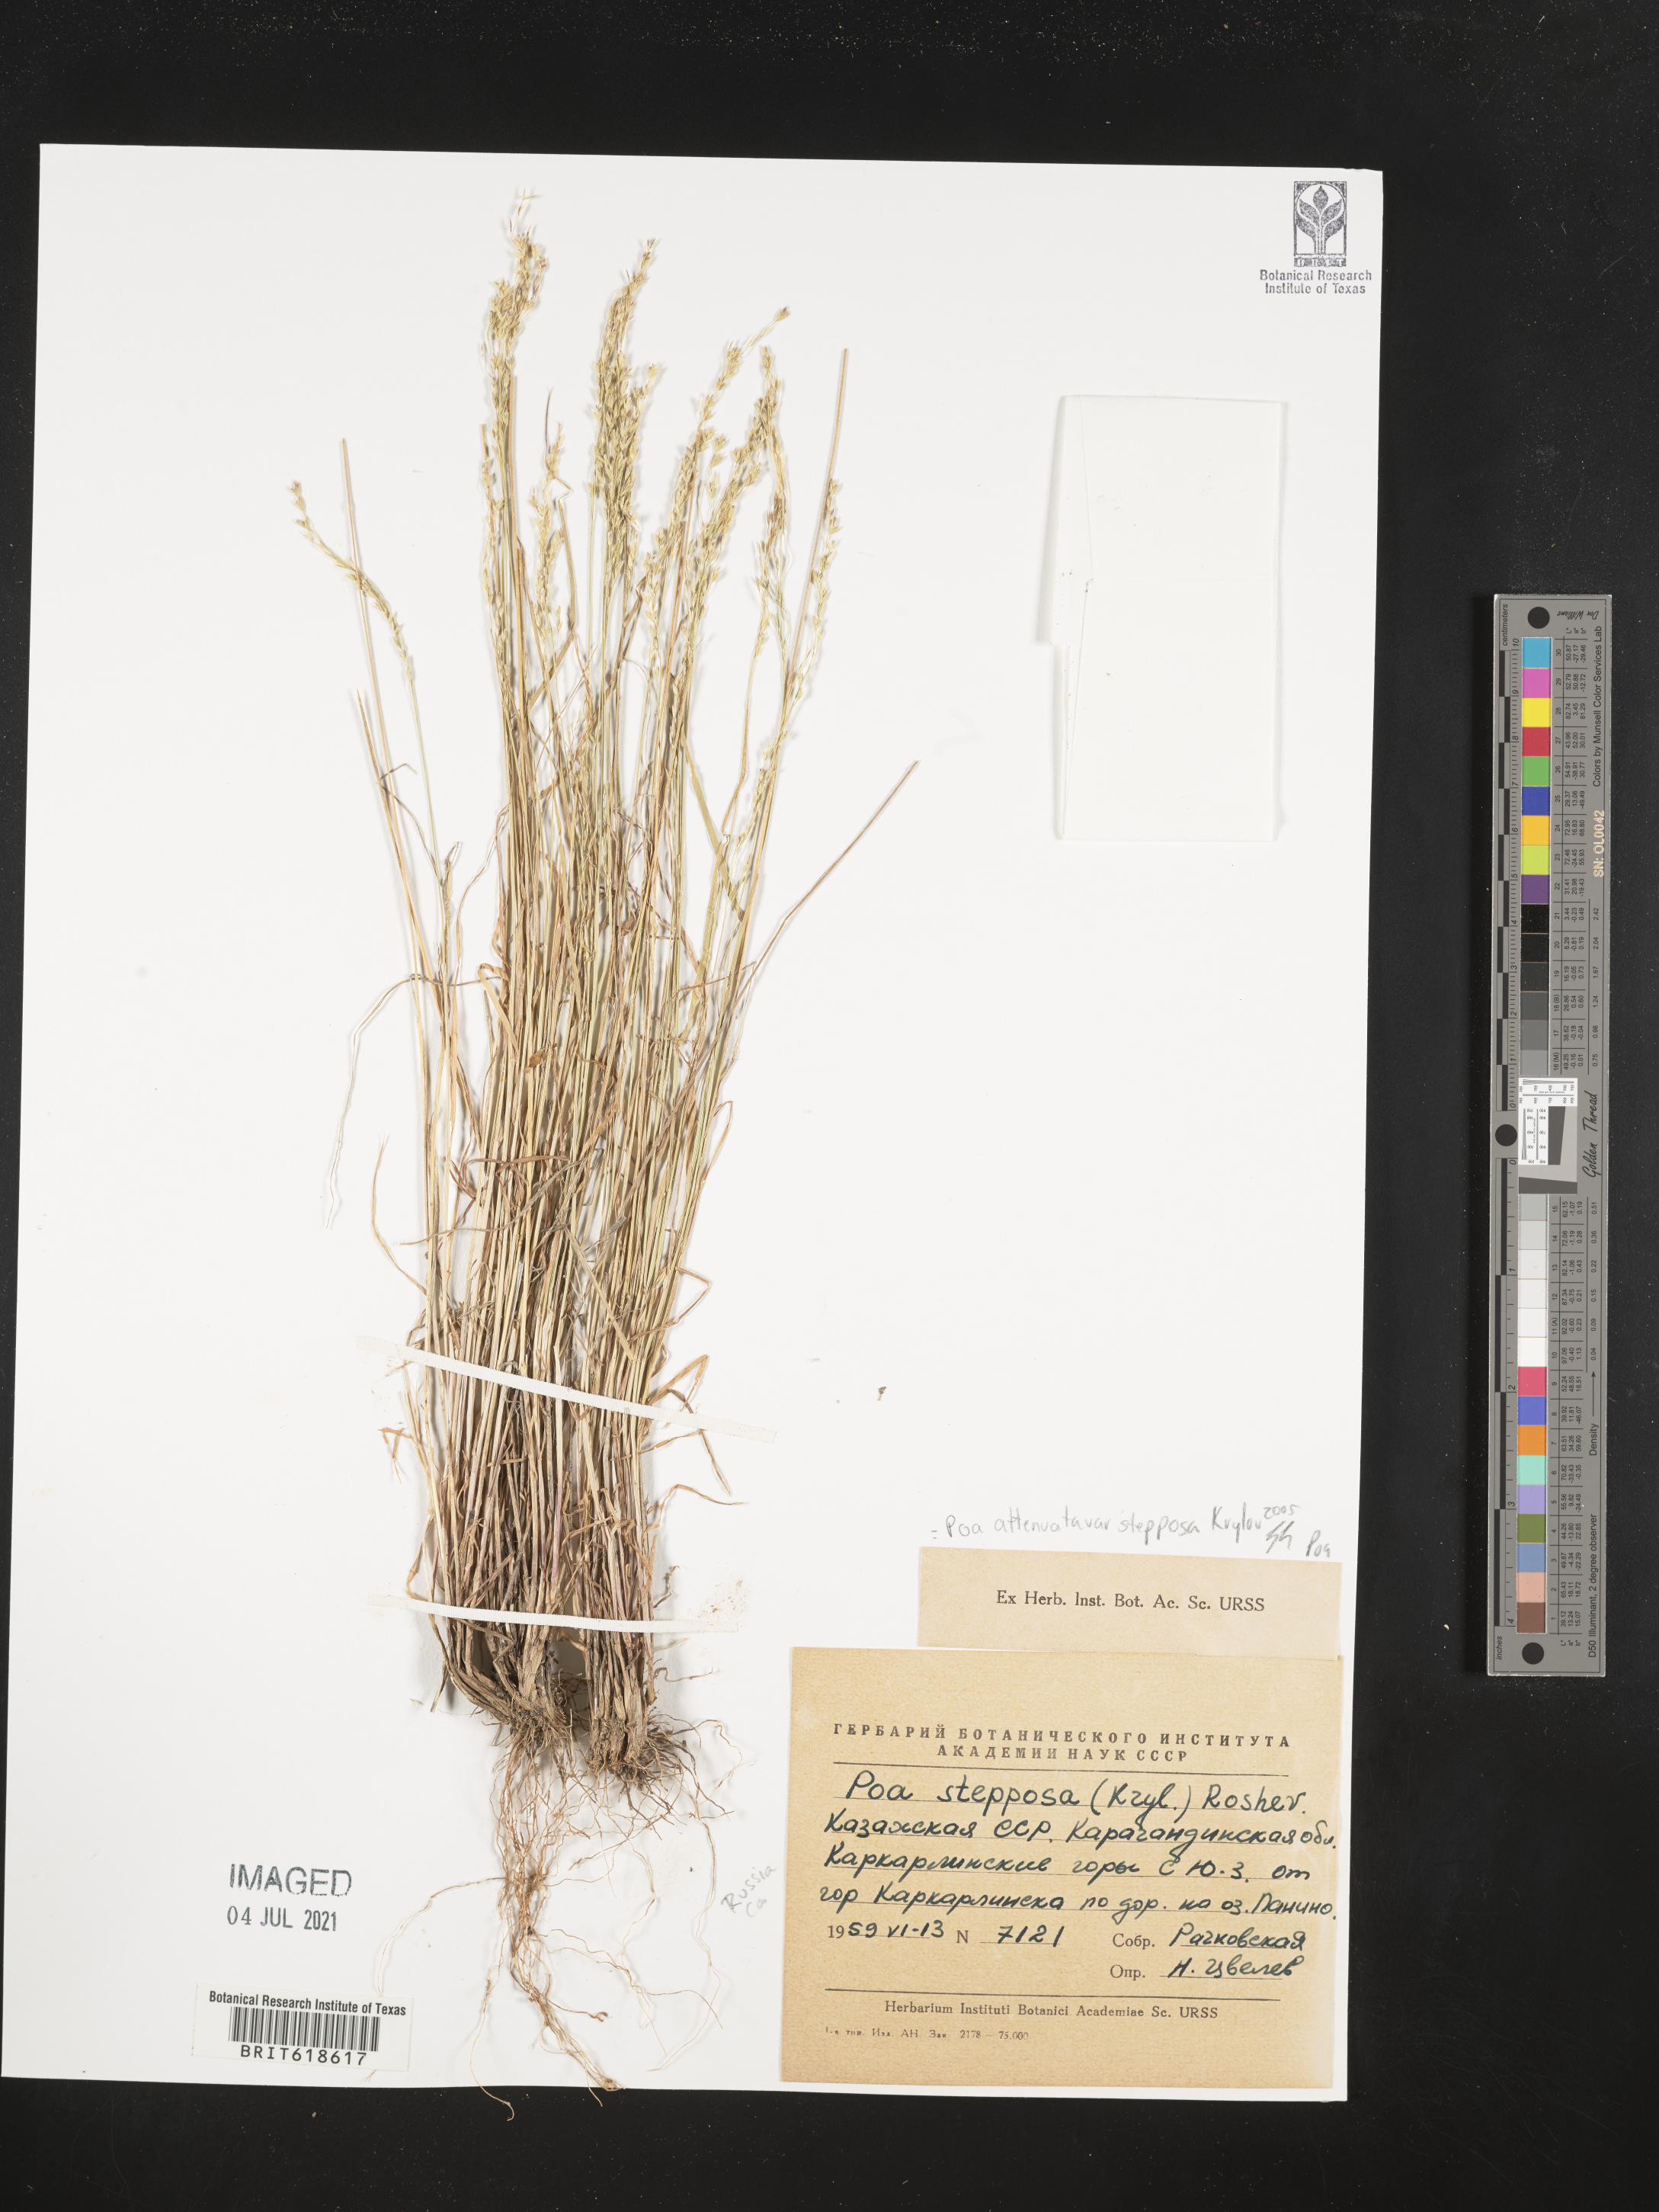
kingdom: Plantae
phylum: Tracheophyta
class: Liliopsida
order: Poales
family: Poaceae
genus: Poa
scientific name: Poa versicolor
